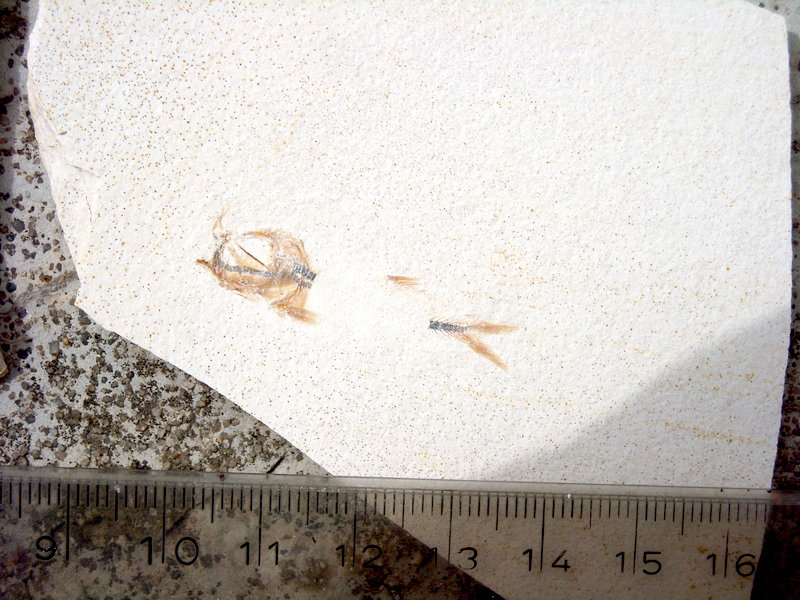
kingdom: Animalia
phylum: Chordata
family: Ascalaboidae
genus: Ebertichthys
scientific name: Ebertichthys ettlingensis
